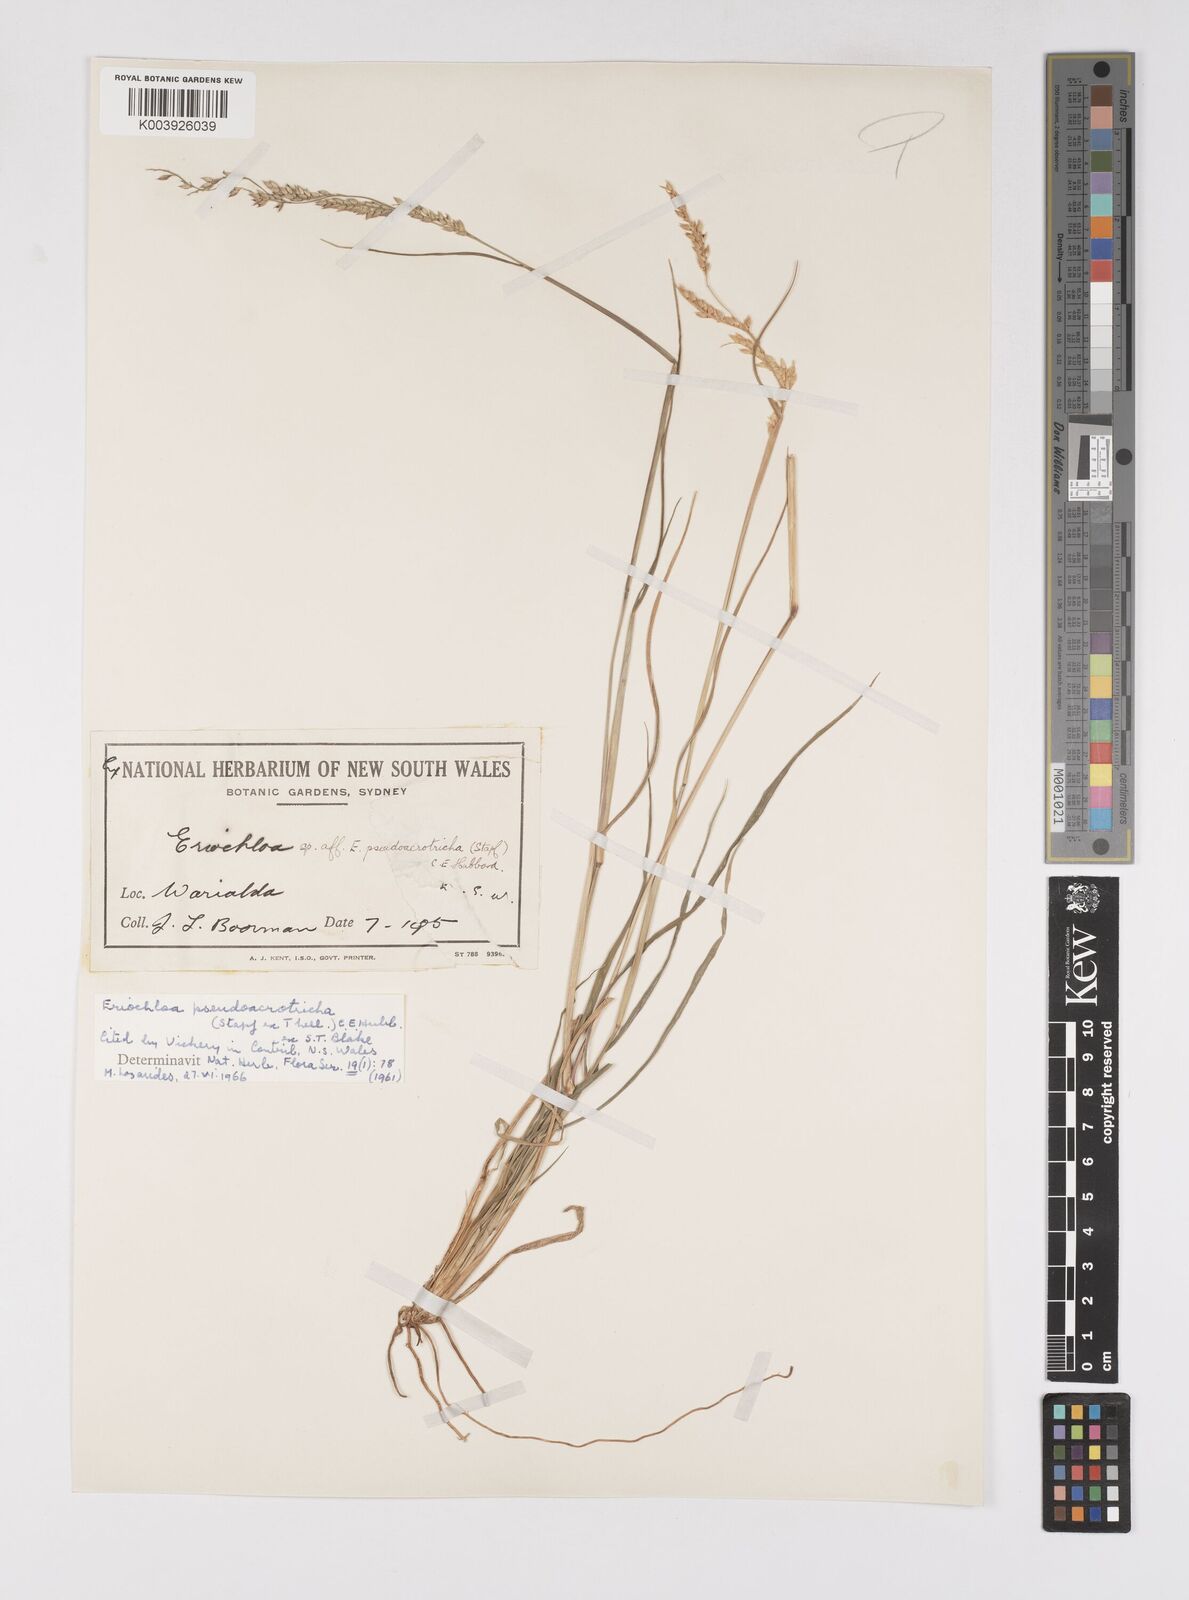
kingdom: Plantae
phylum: Tracheophyta
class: Liliopsida
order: Poales
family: Poaceae
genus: Eriochloa
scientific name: Eriochloa pseudoacrotricha
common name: Perennial cup-grass
